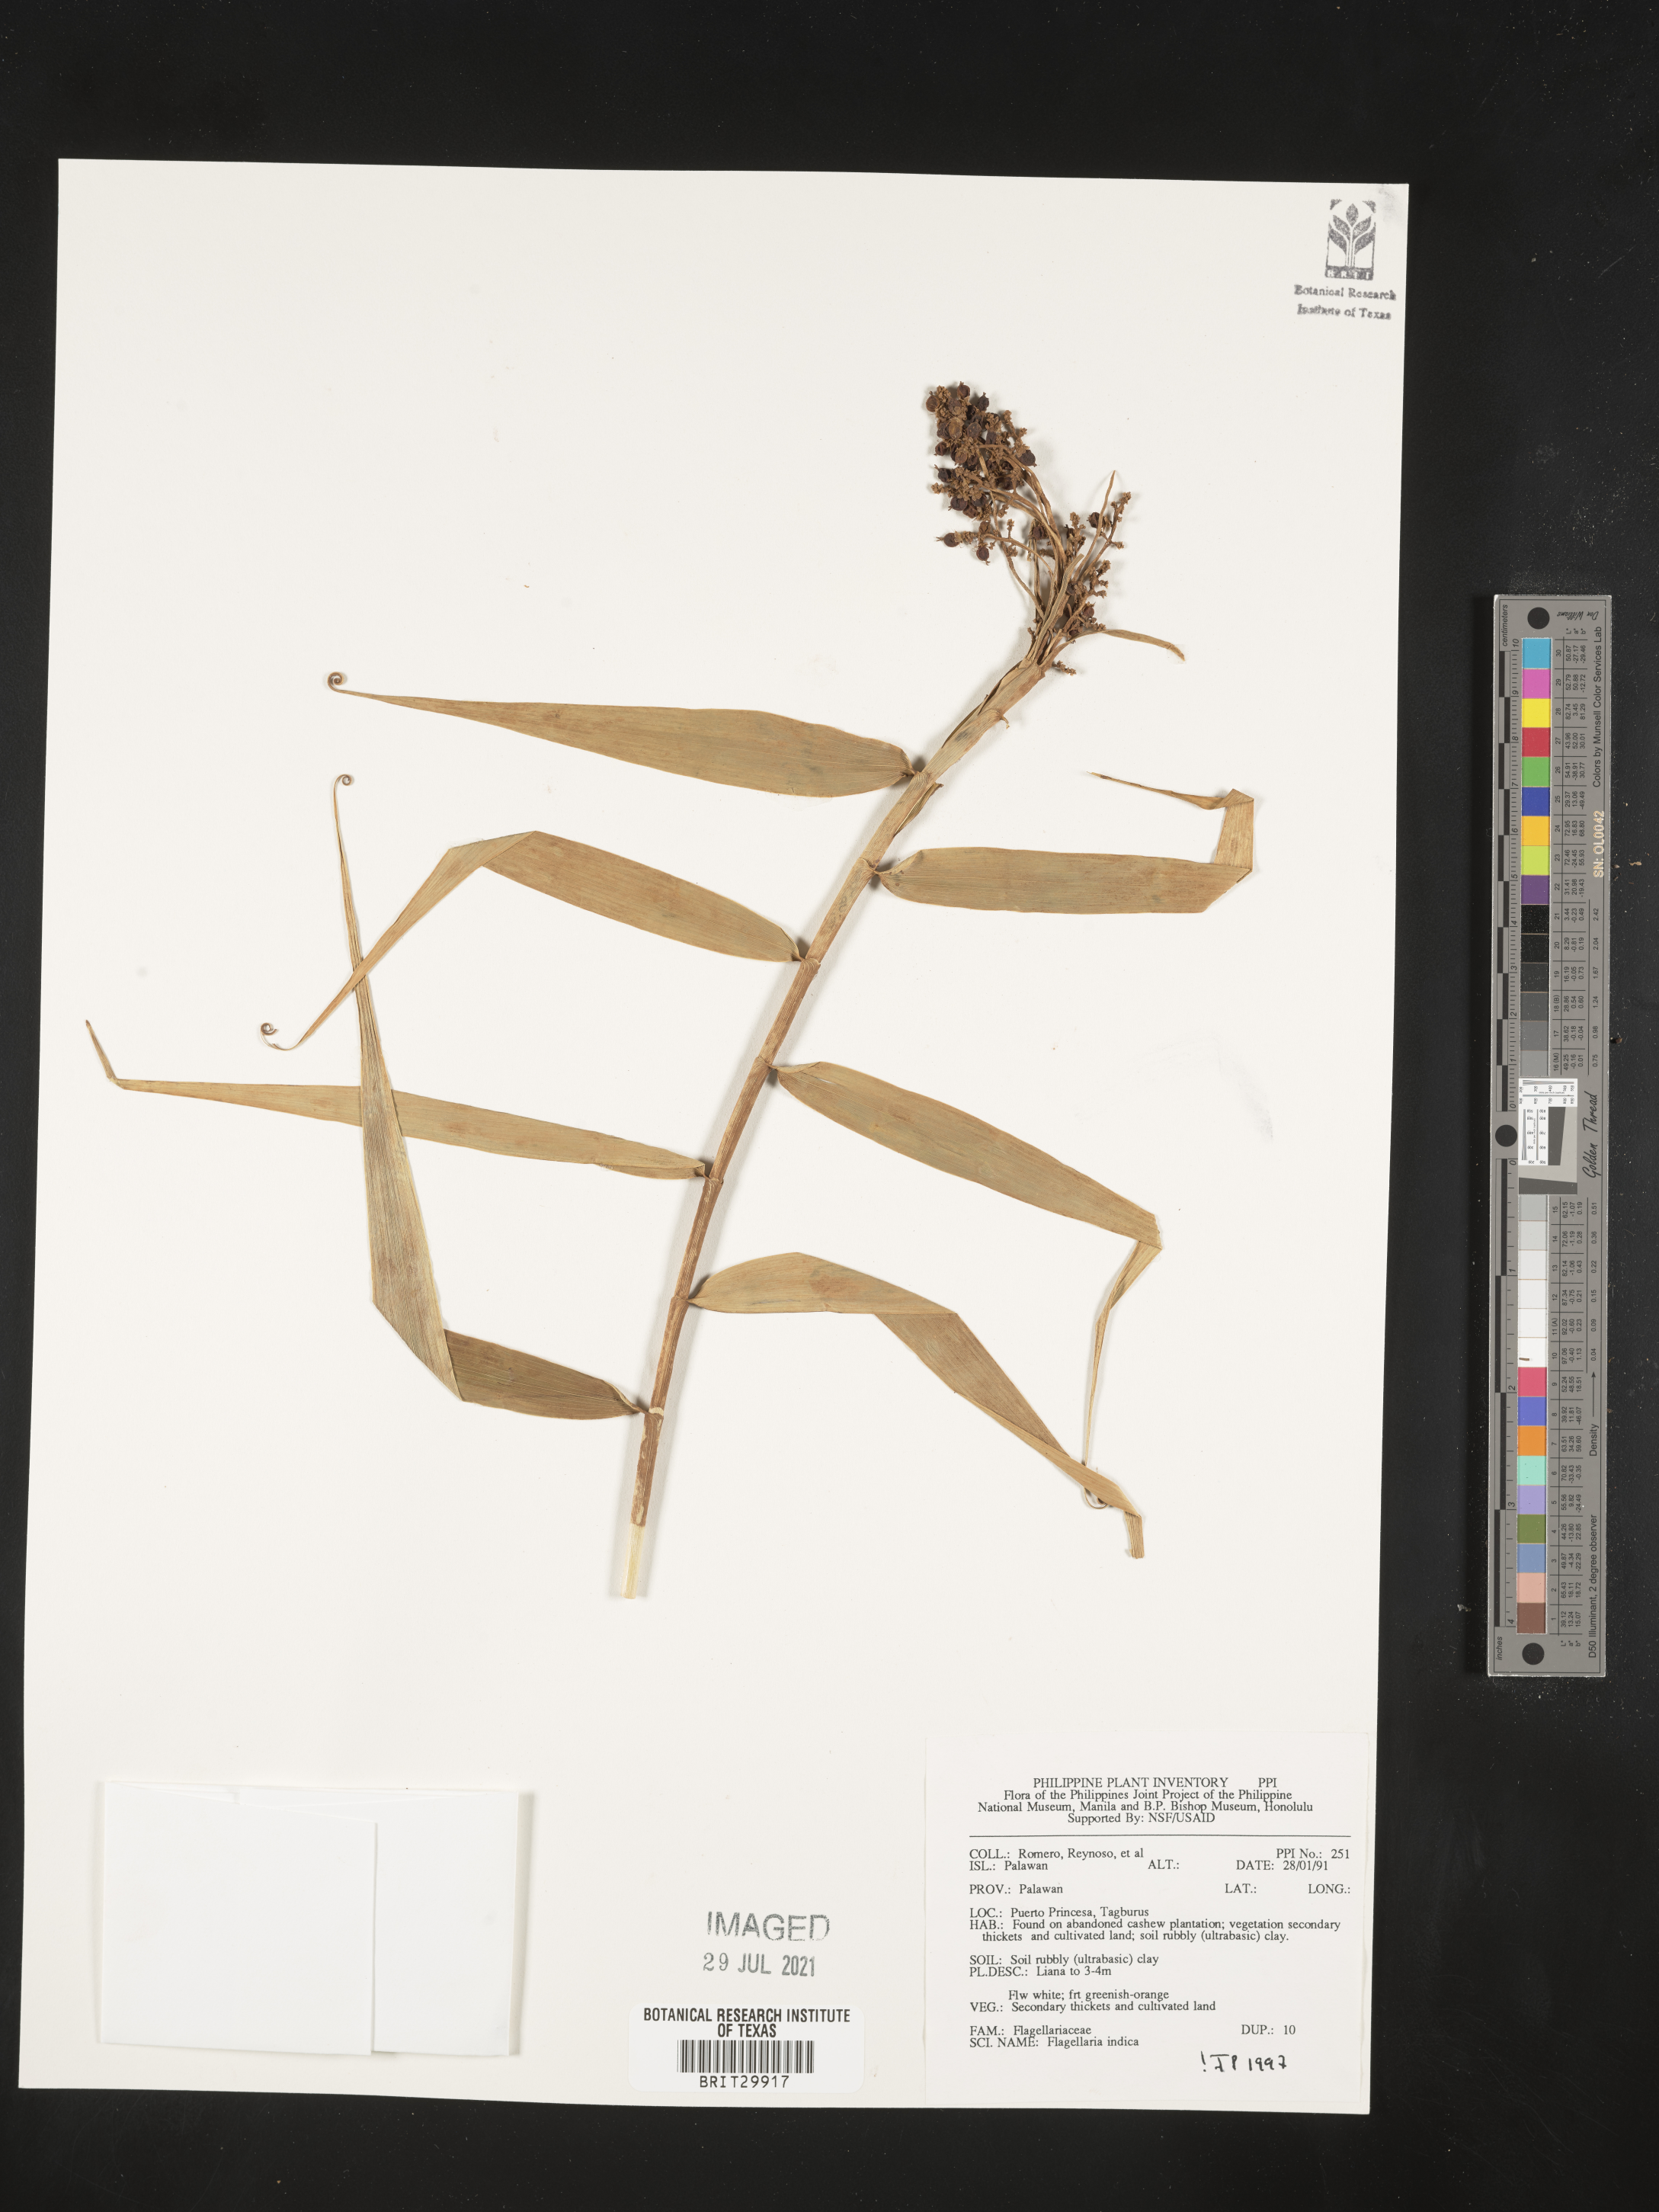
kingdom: Plantae
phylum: Tracheophyta
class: Liliopsida
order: Poales
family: Flagellariaceae
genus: Flagellaria
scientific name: Flagellaria indica
